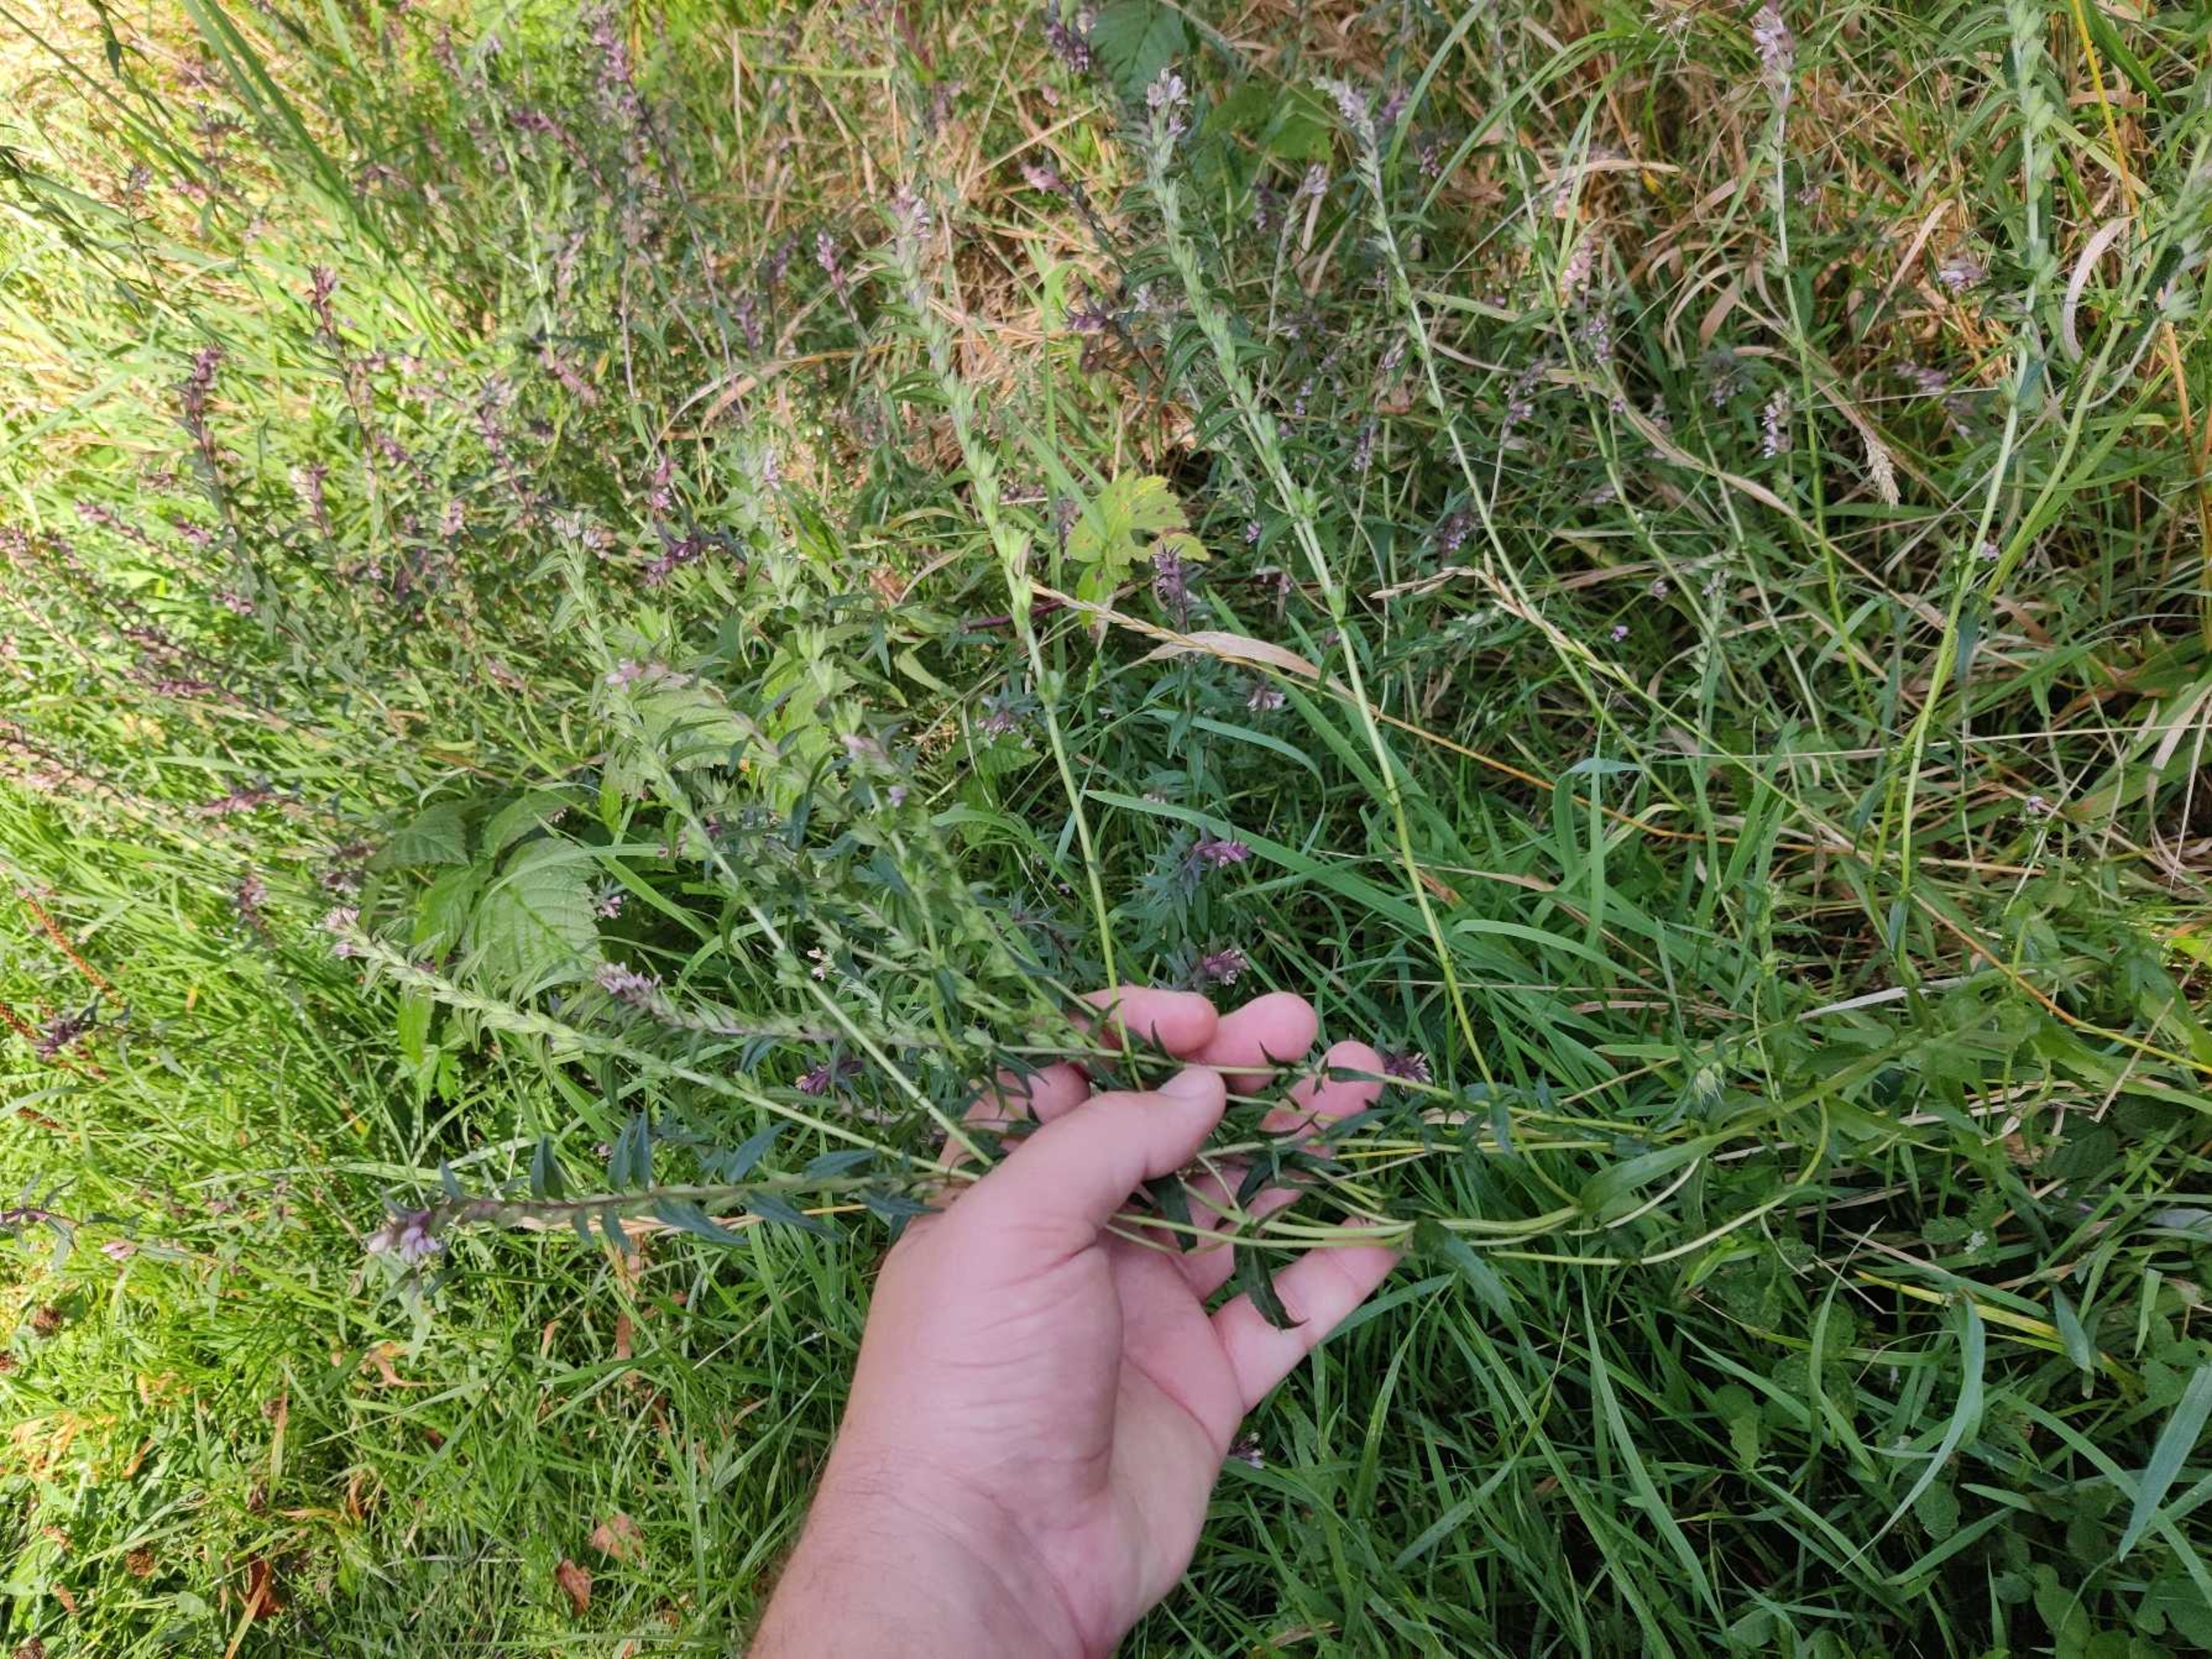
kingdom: Plantae
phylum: Tracheophyta
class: Magnoliopsida
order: Lamiales
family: Orobanchaceae
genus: Odontites
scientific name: Odontites vulgaris
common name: Høst-rødtop
